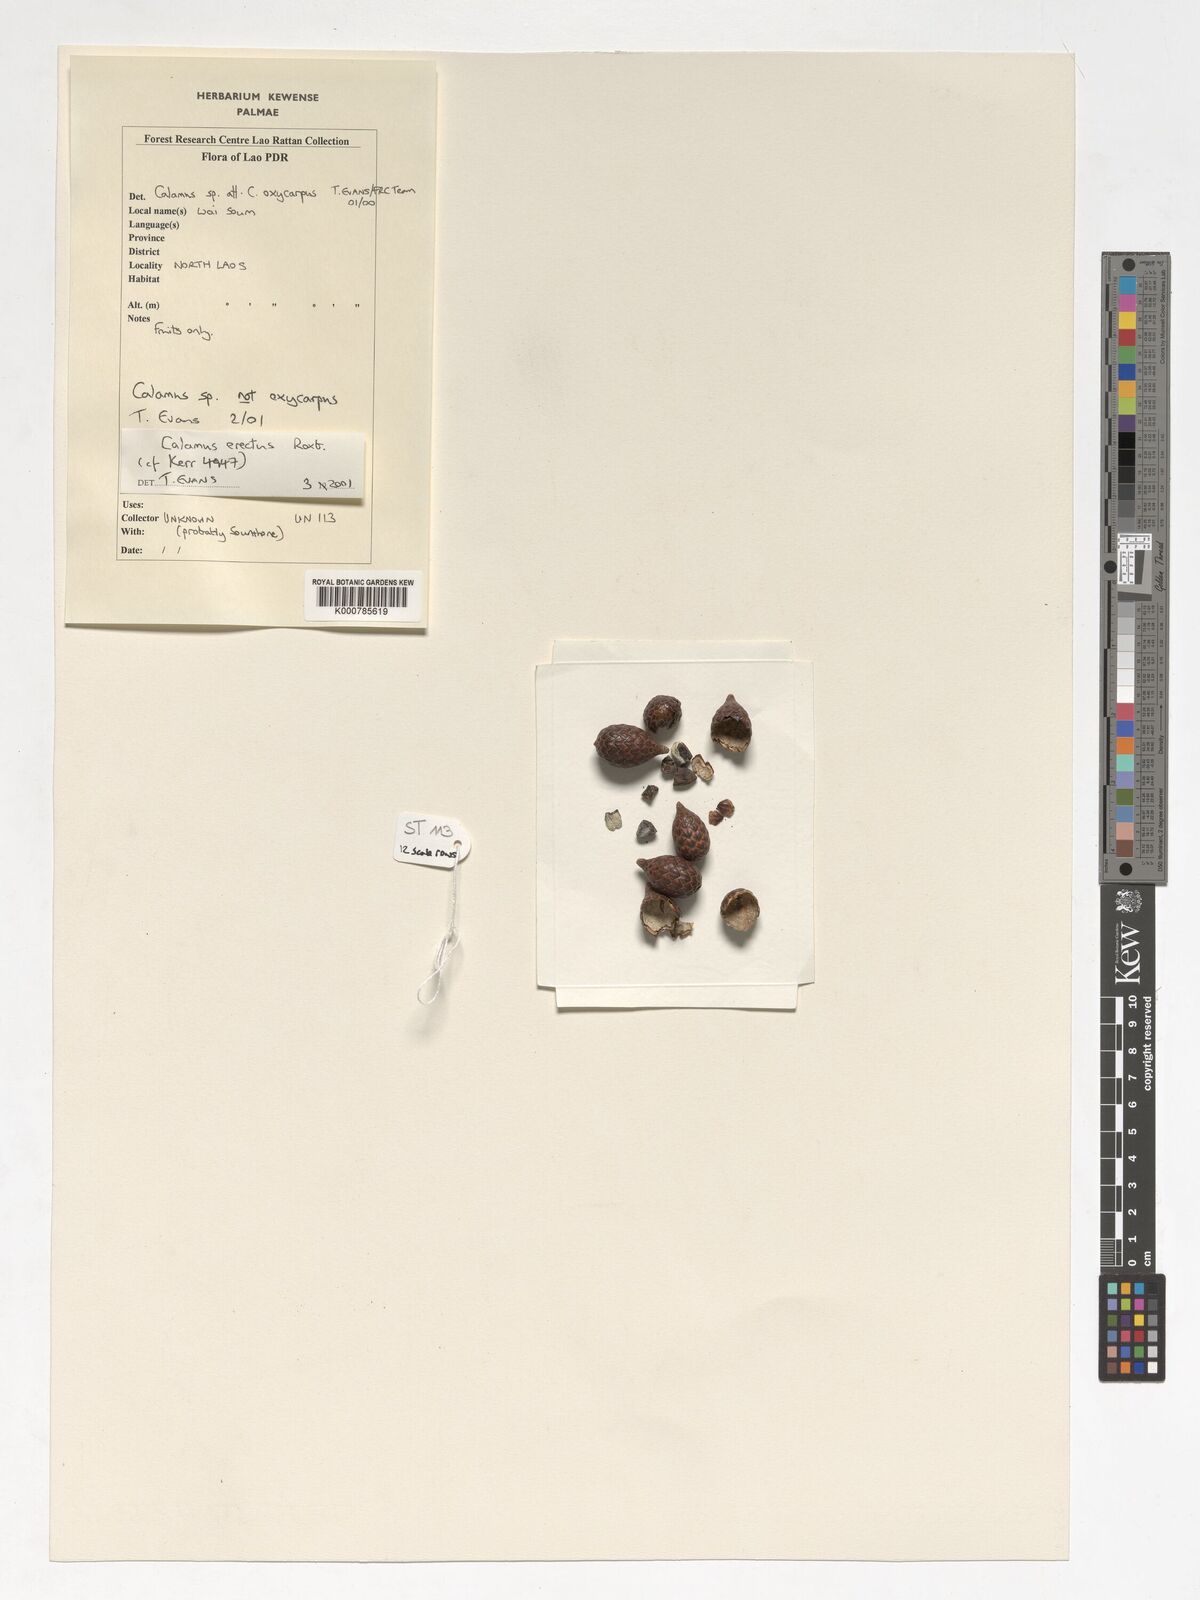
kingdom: Plantae
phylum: Tracheophyta
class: Liliopsida
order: Arecales
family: Arecaceae
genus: Calamus
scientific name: Calamus erectus
